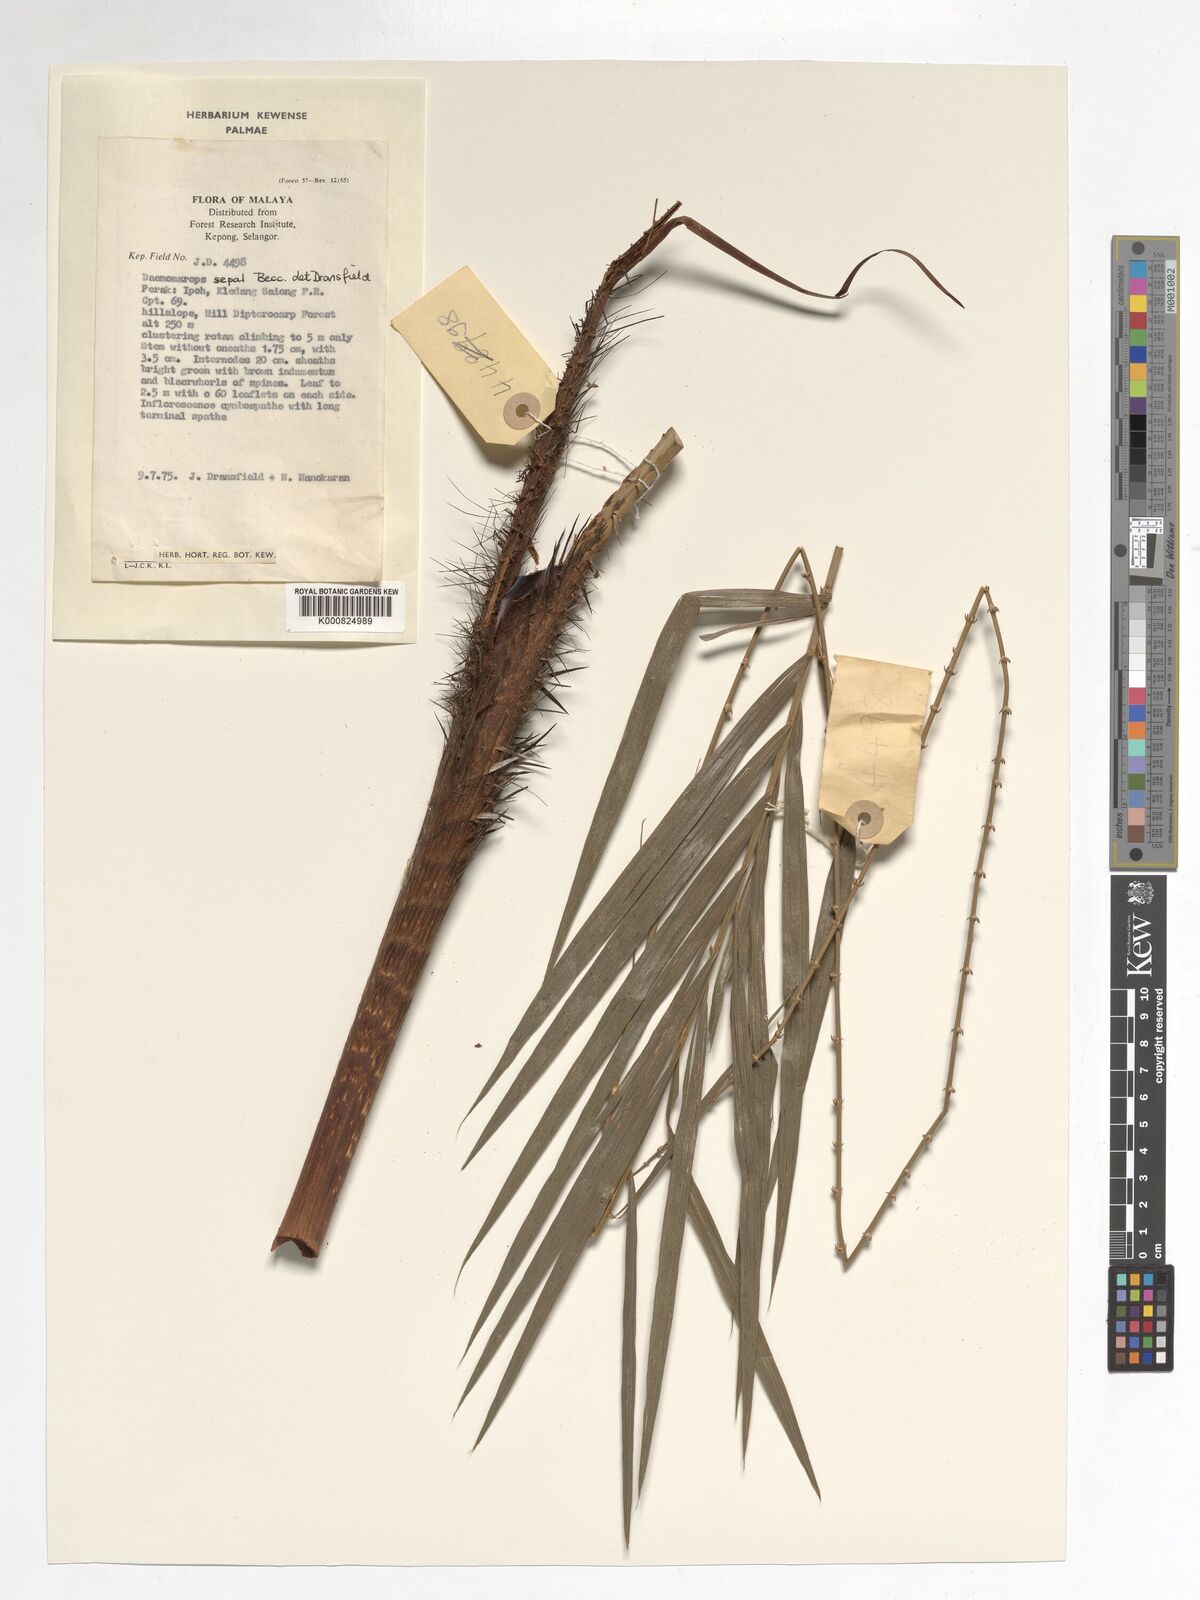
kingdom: Plantae
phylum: Tracheophyta
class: Liliopsida
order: Arecales
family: Arecaceae
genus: Calamus
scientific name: Calamus melanochaetes
